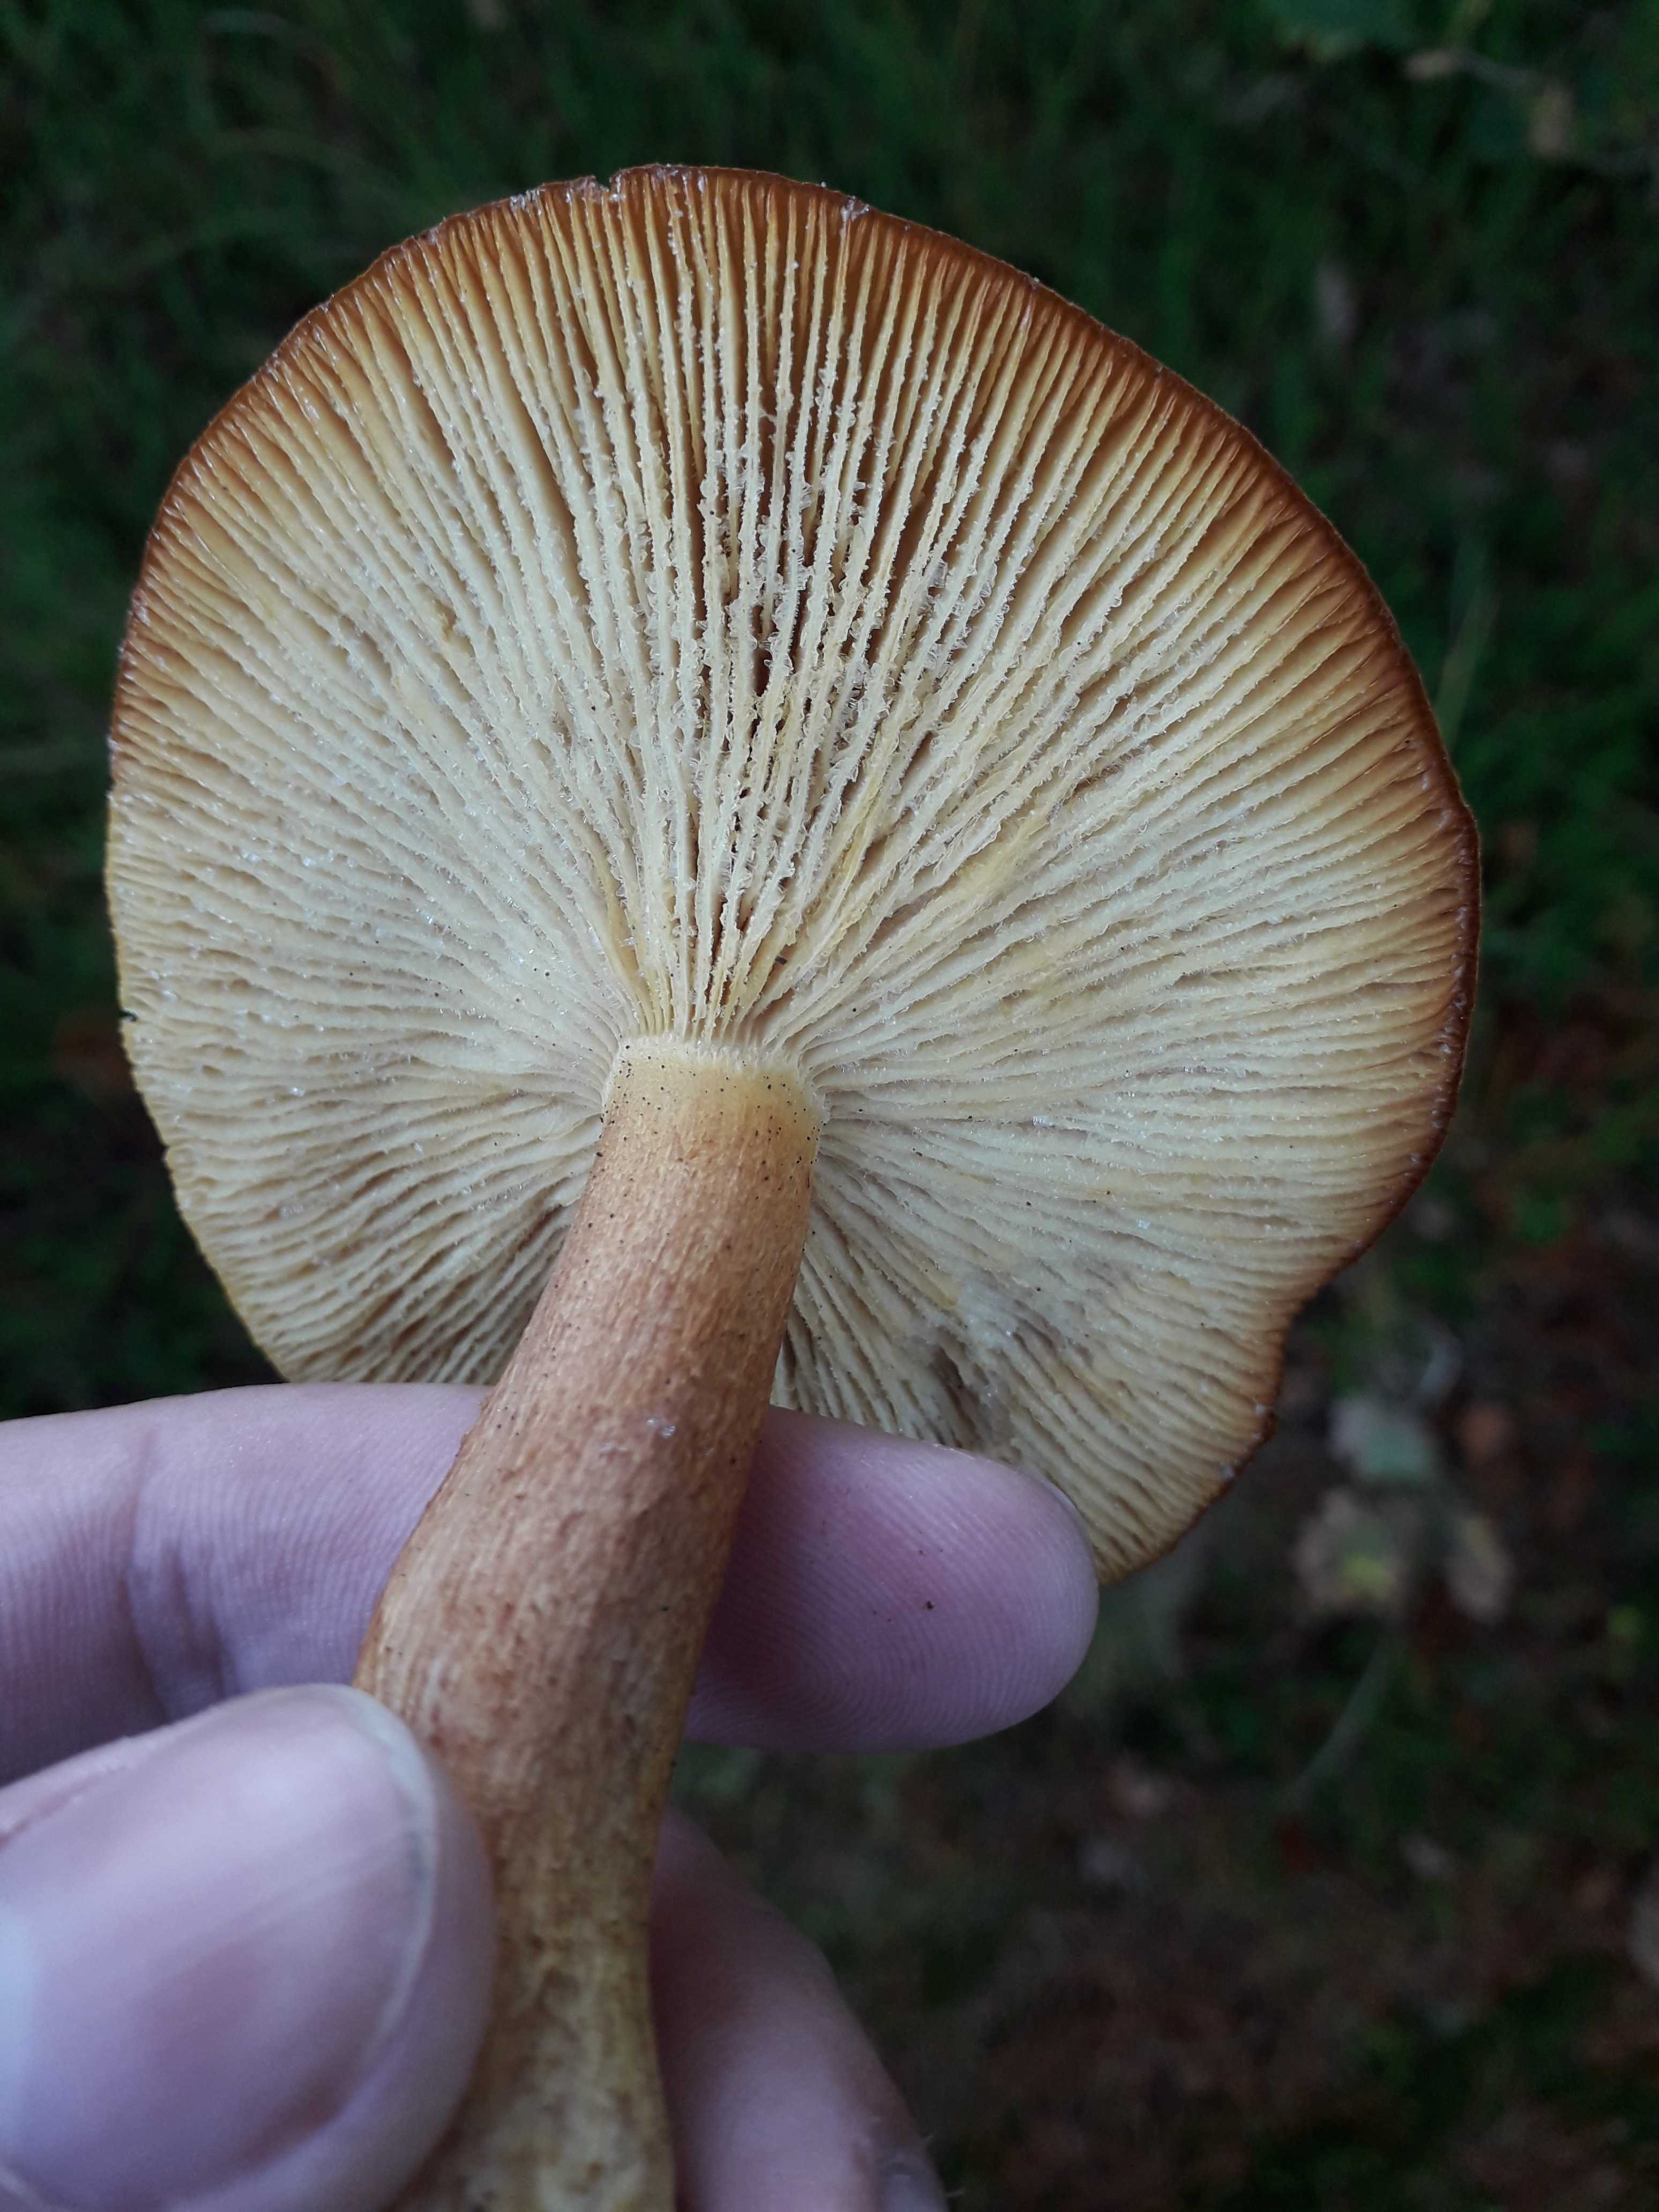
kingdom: Fungi
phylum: Basidiomycota
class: Agaricomycetes
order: Agaricales
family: Tricholomataceae
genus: Tricholomopsis
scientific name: Tricholomopsis rutilans
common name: purpur-væbnerhat
